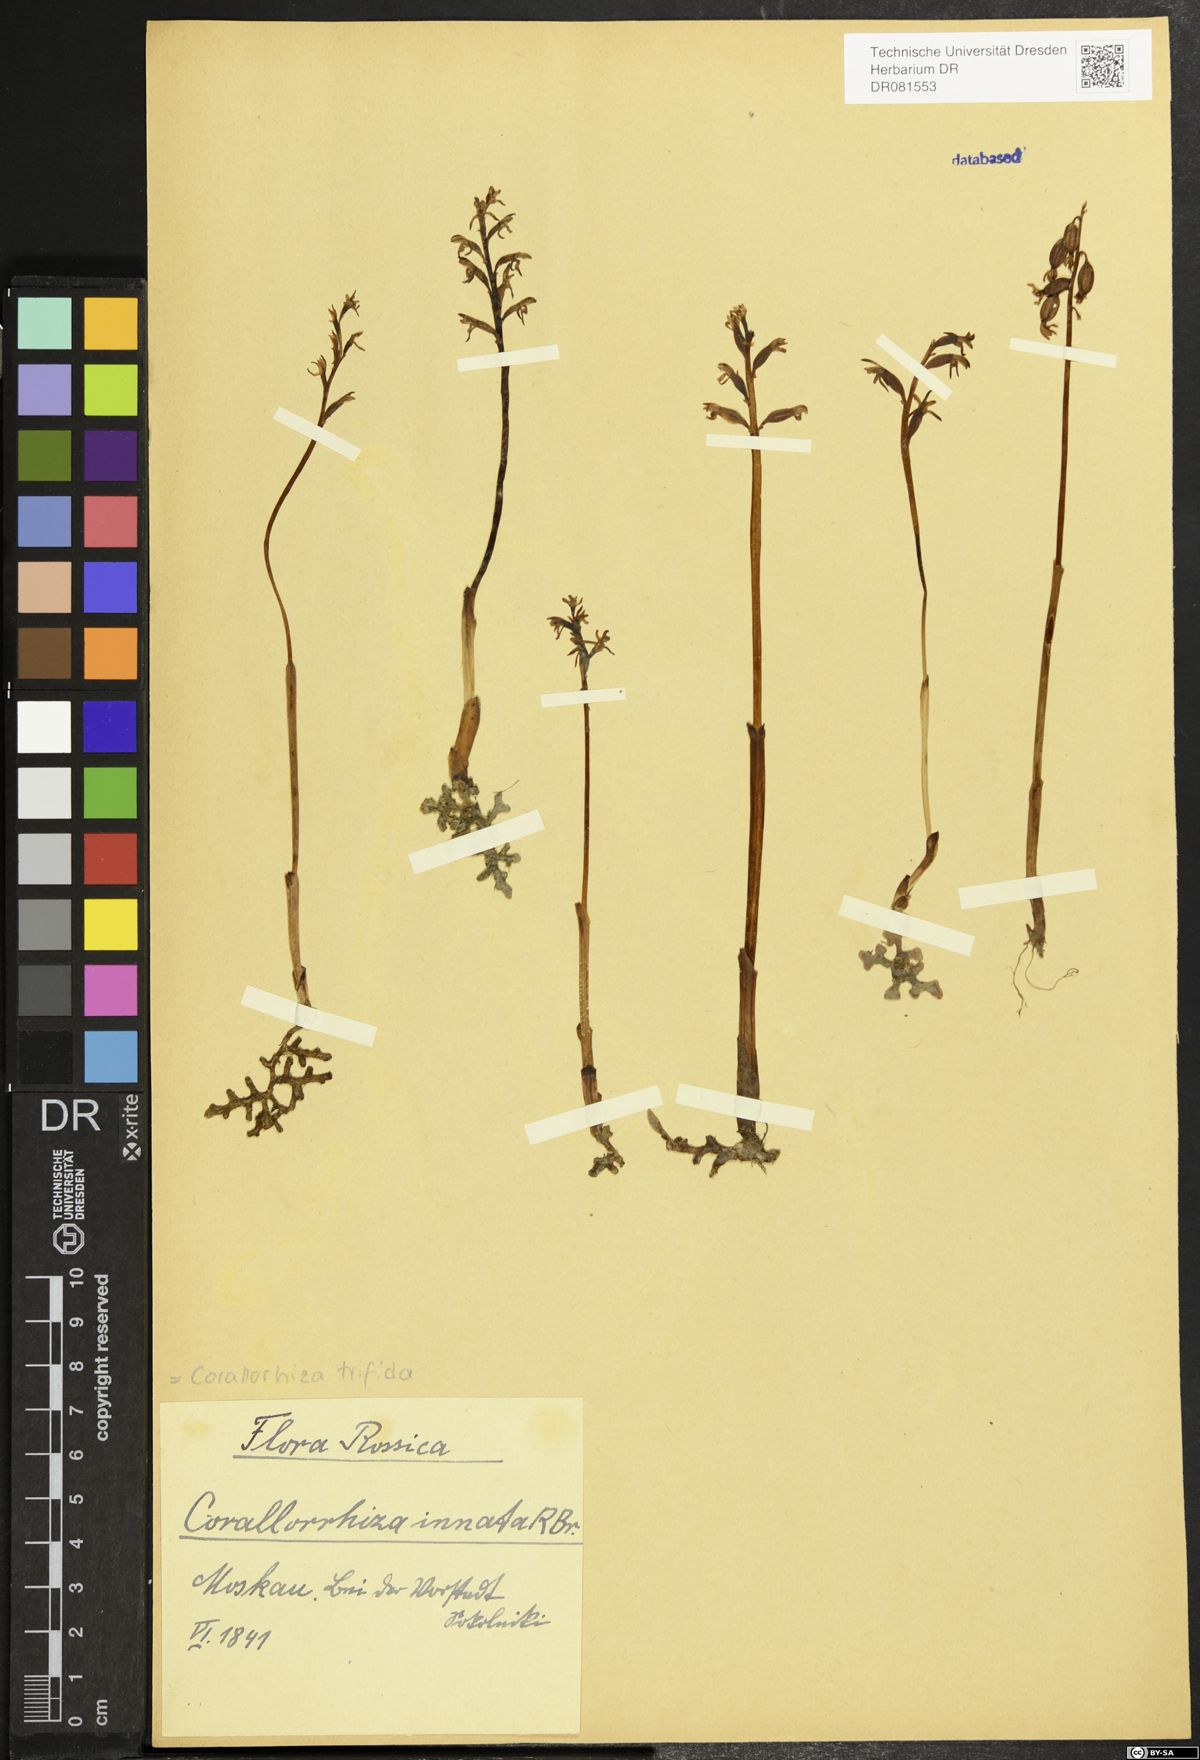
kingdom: Plantae
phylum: Tracheophyta
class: Liliopsida
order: Asparagales
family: Orchidaceae
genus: Corallorhiza
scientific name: Corallorhiza trifida
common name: Yellow coralroot
